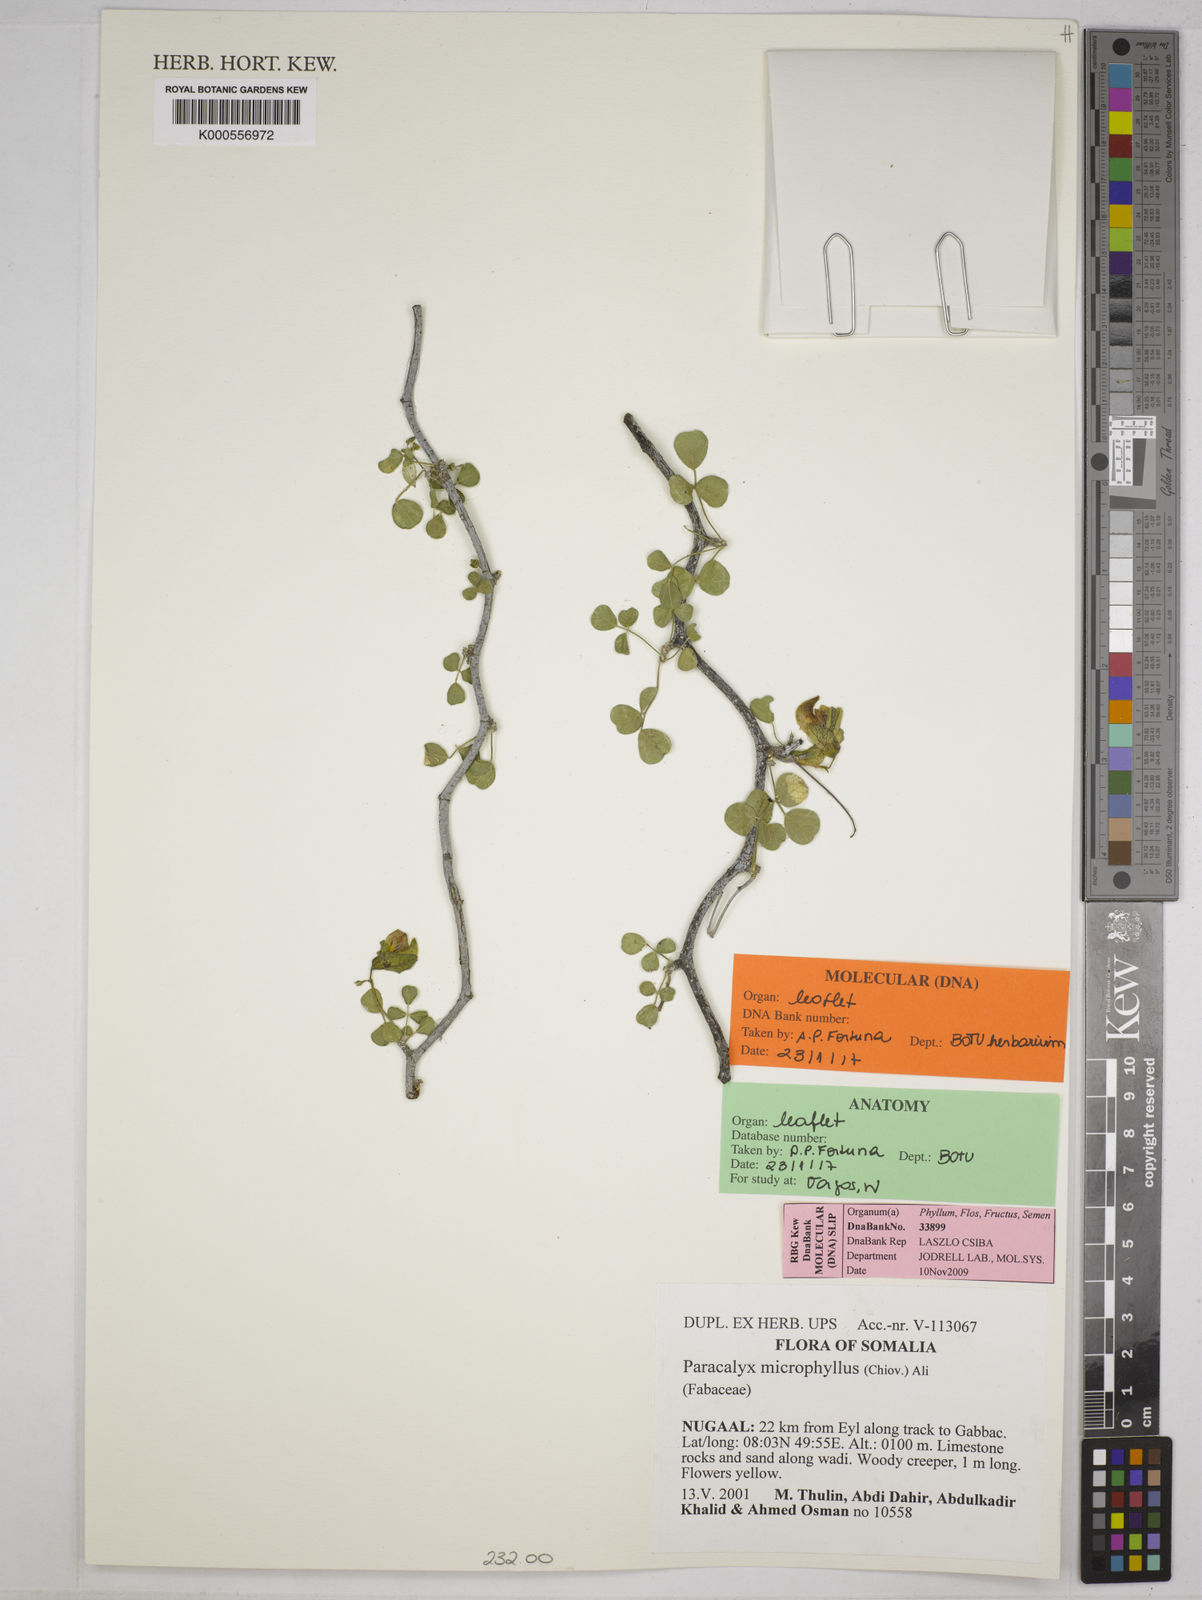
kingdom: Plantae
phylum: Tracheophyta
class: Magnoliopsida
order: Fabales
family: Fabaceae
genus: Paracalyx
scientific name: Paracalyx microphyllus
